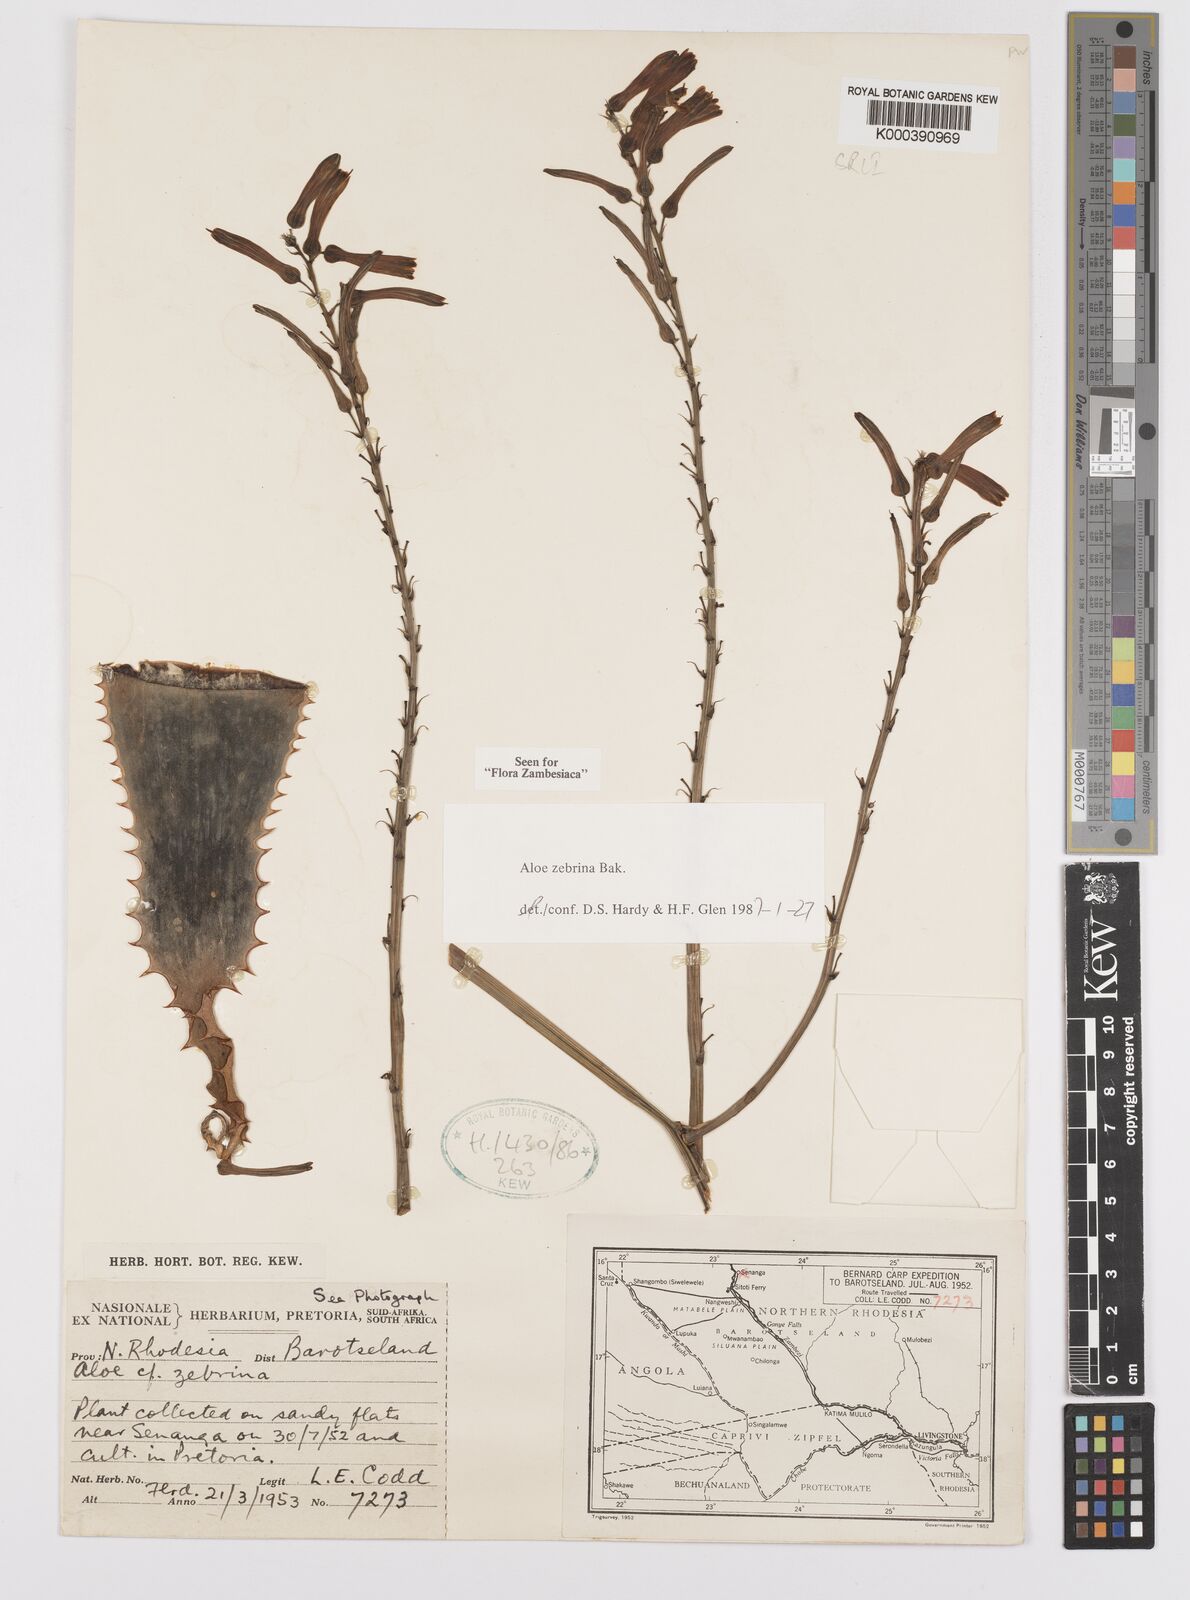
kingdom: Plantae
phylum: Tracheophyta
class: Liliopsida
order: Asparagales
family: Asphodelaceae
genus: Aloe
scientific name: Aloe zebrina
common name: Zebra-leaf aloe
